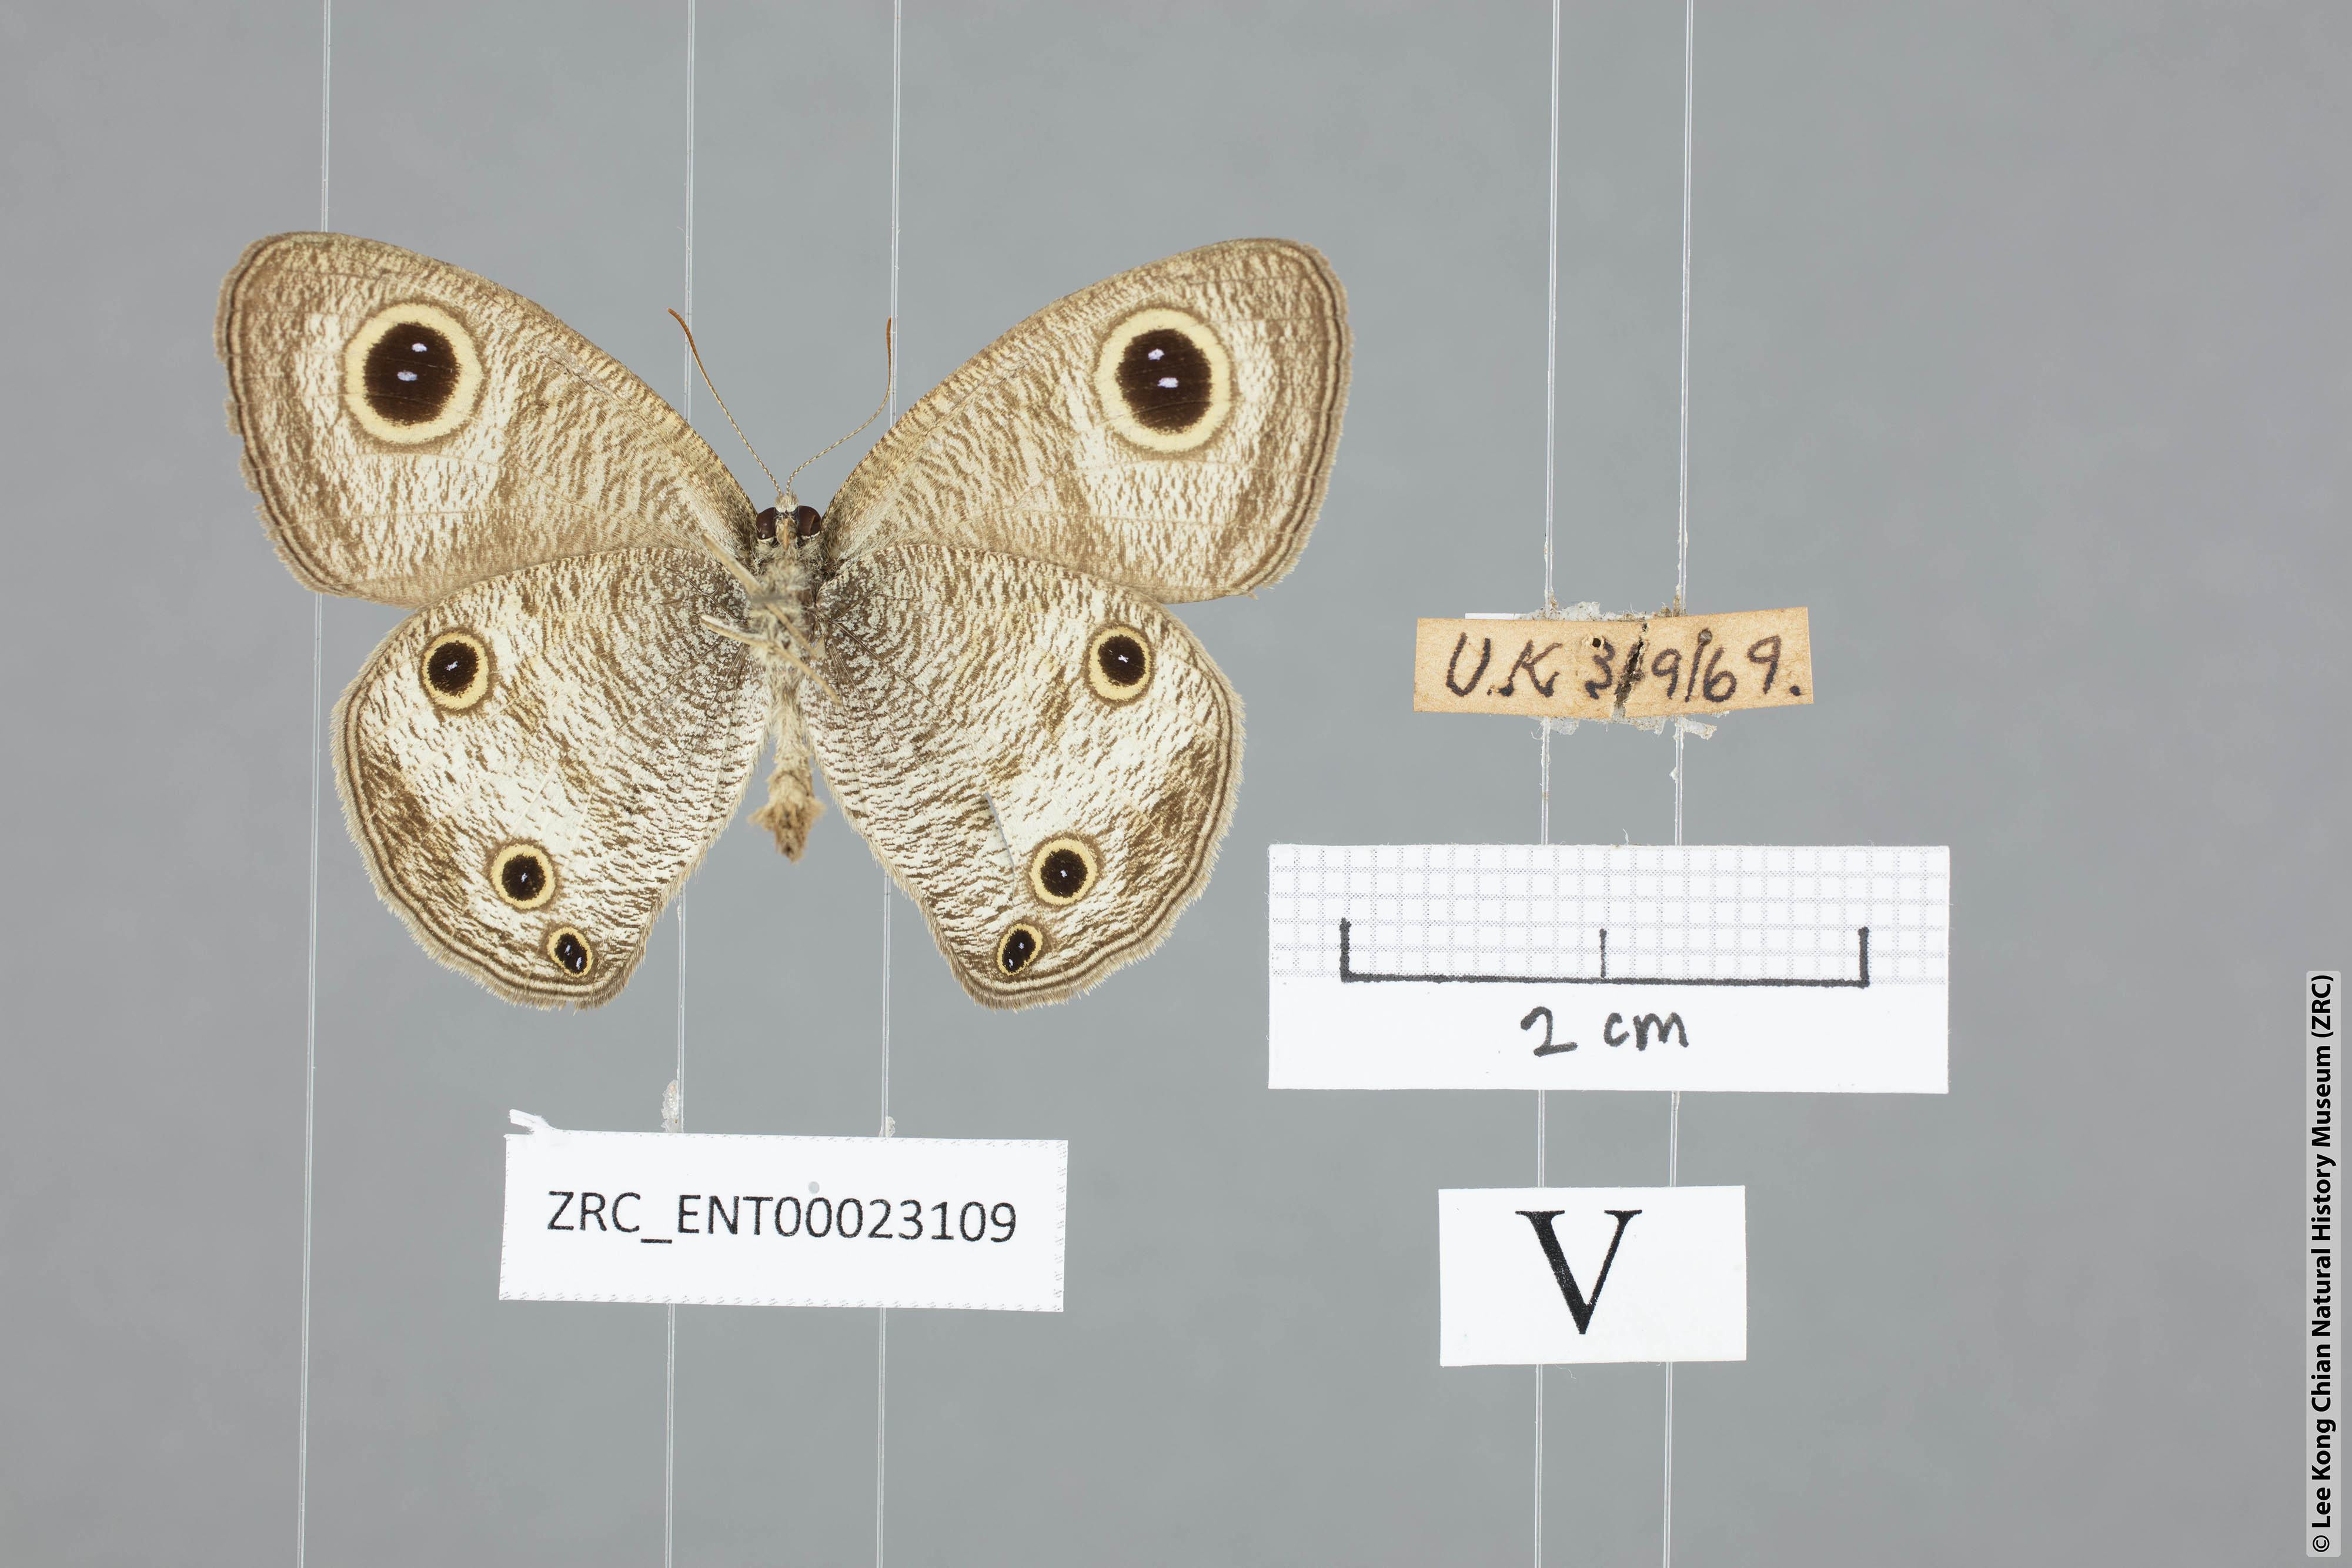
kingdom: Animalia
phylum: Arthropoda
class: Insecta
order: Lepidoptera
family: Nymphalidae
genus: Ypthima
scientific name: Ypthima pandocus
